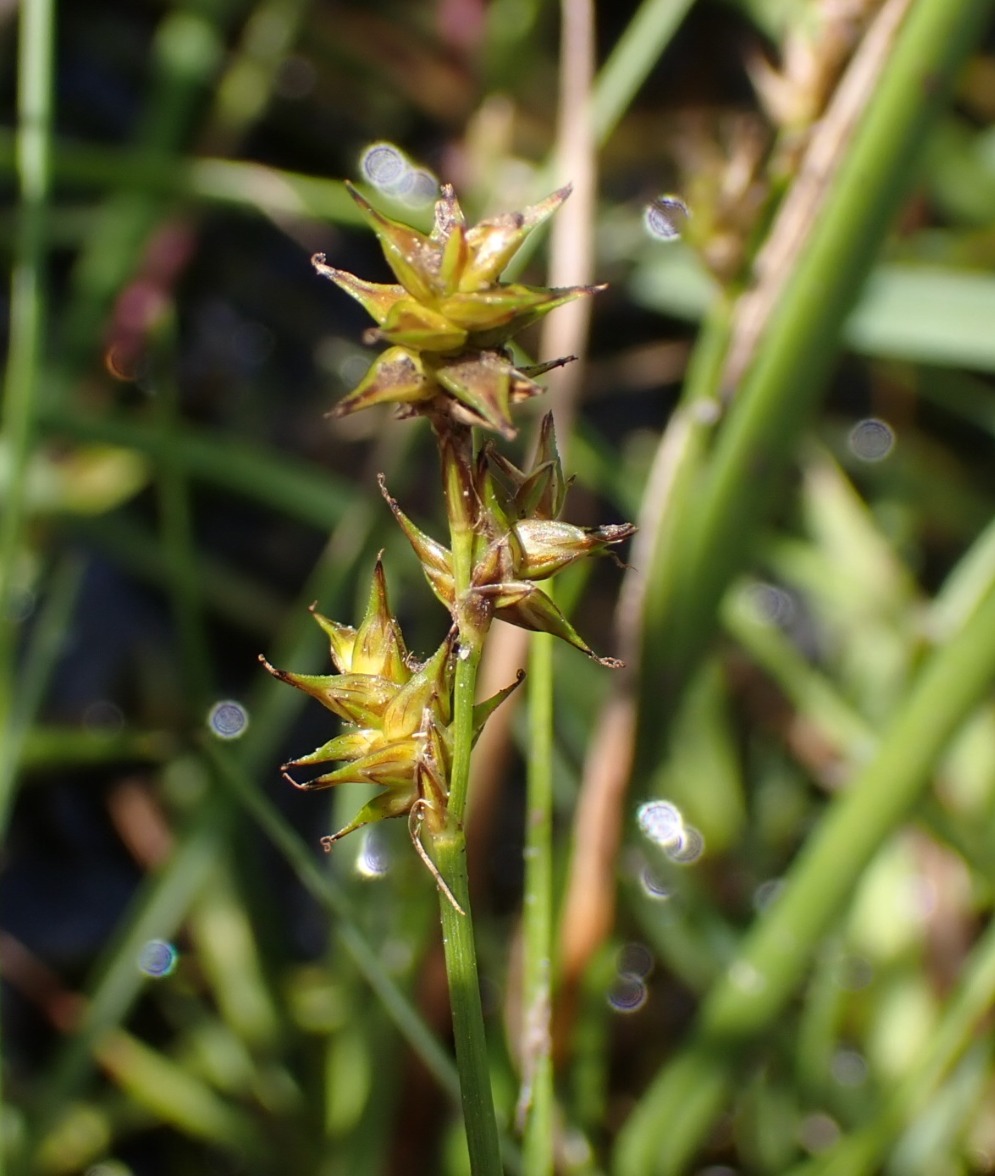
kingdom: Plantae
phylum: Tracheophyta
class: Liliopsida
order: Poales
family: Cyperaceae
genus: Carex
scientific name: Carex echinata
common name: Stjerne-star
